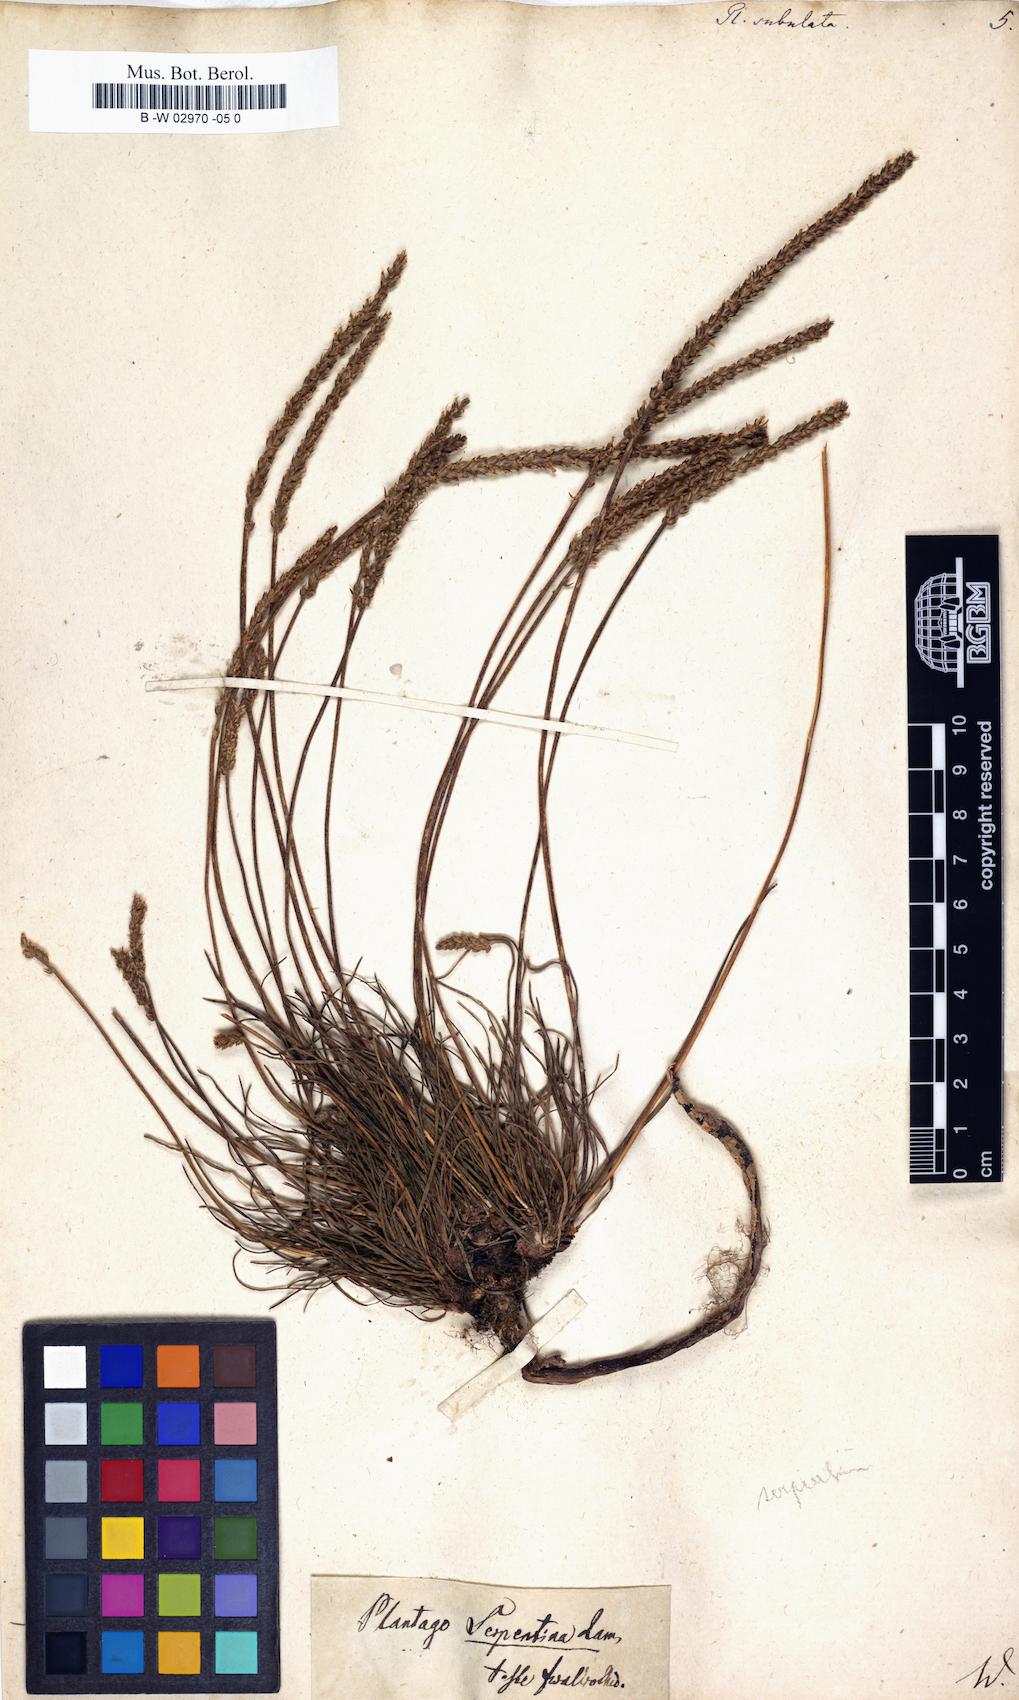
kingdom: Plantae
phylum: Tracheophyta
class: Magnoliopsida
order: Lamiales
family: Plantaginaceae
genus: Plantago
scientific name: Plantago subulata
